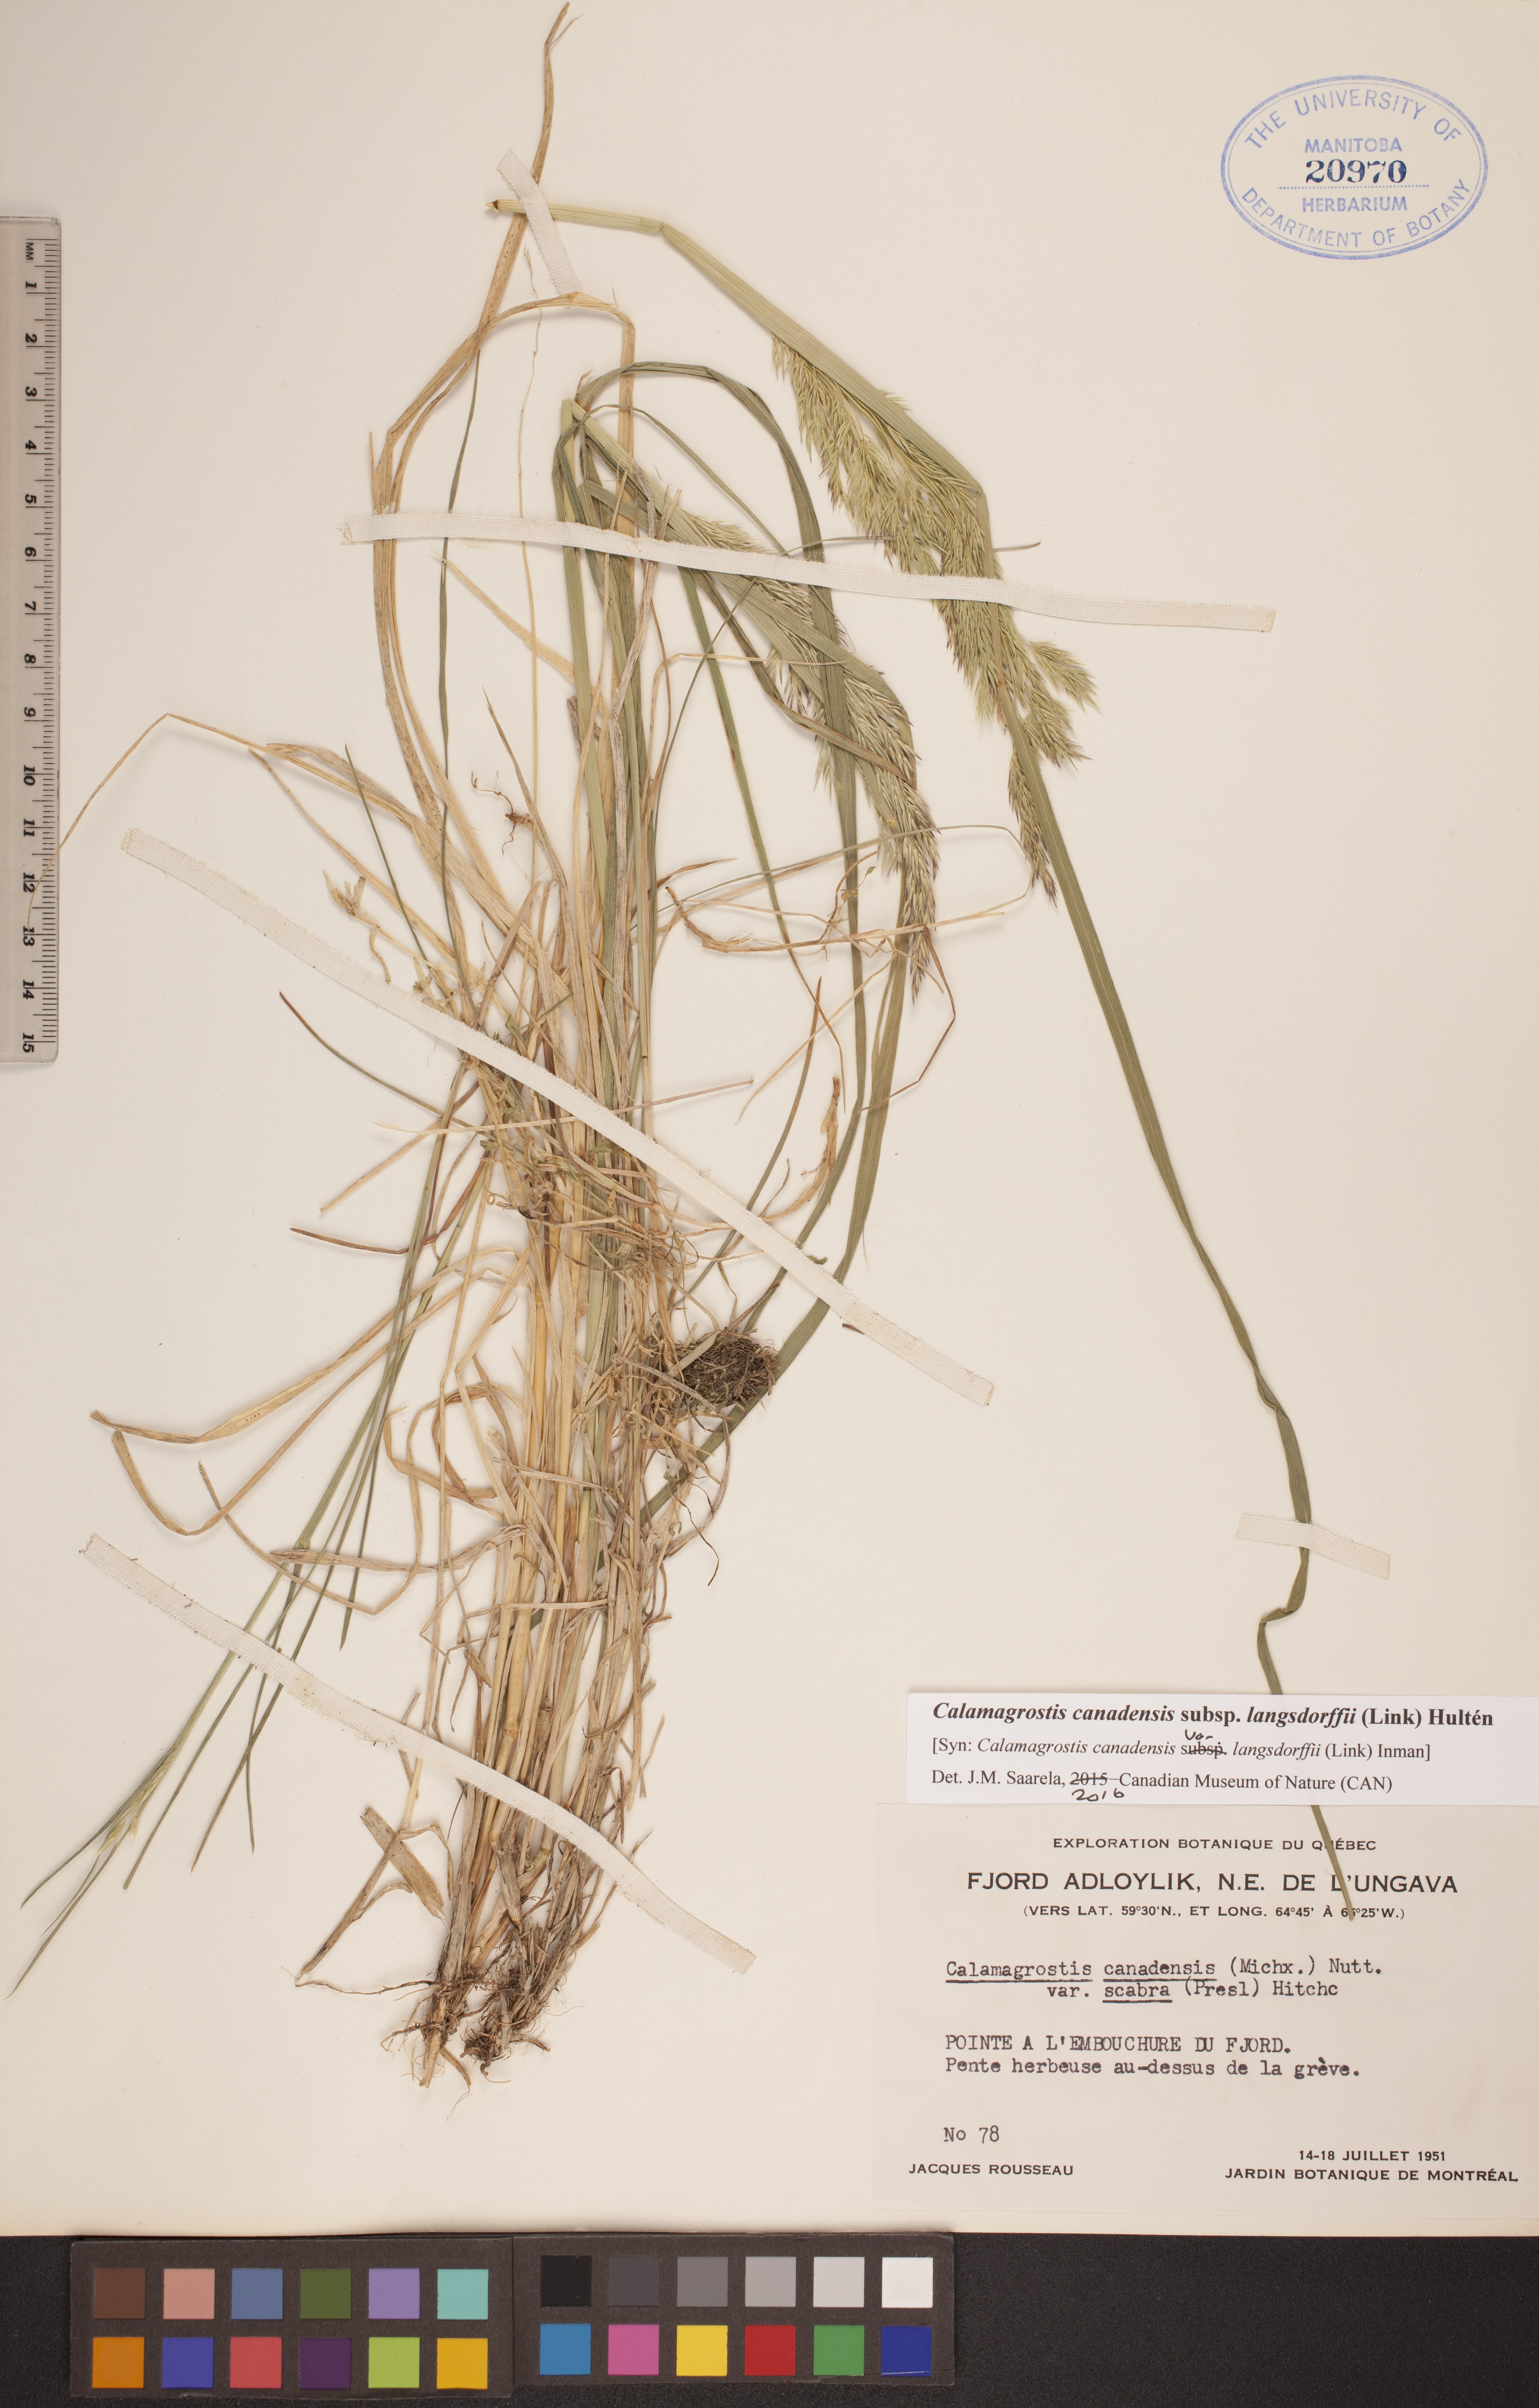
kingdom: Plantae
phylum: Tracheophyta
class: Liliopsida
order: Poales
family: Poaceae
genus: Calamagrostis
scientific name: Calamagrostis purpurea
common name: Scandinavian small-reed
